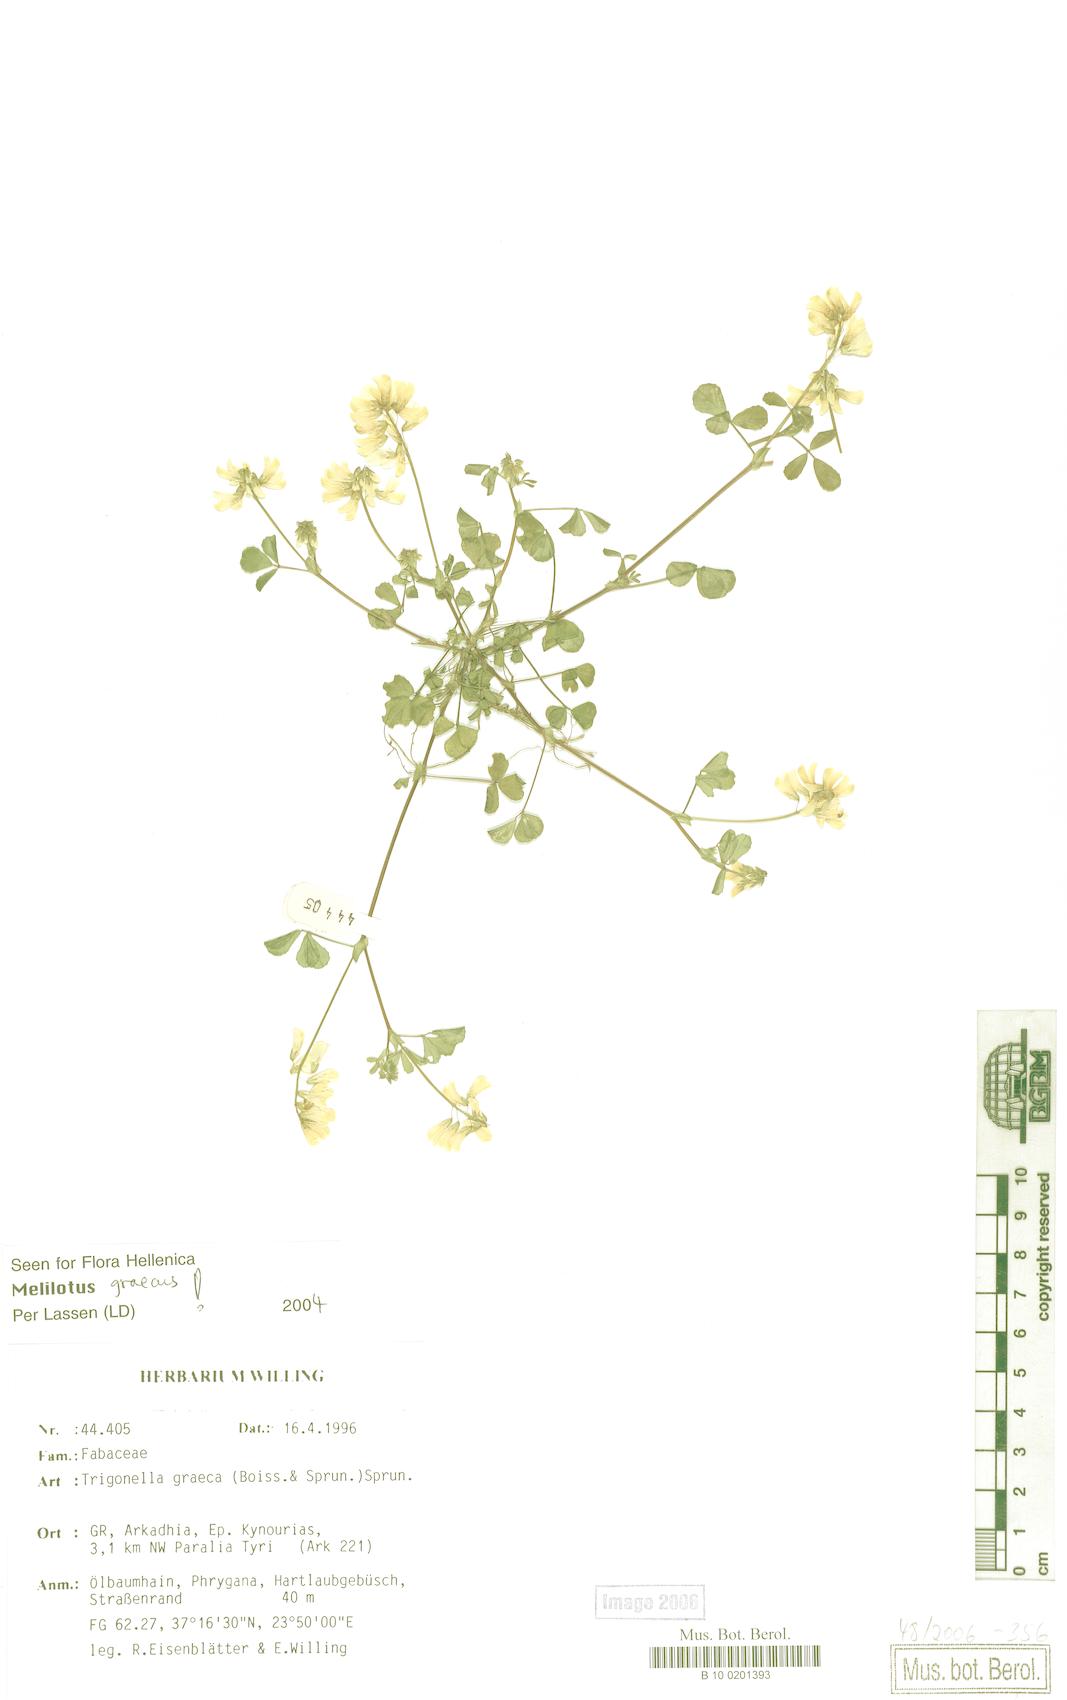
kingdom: Plantae
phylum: Tracheophyta
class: Magnoliopsida
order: Fabales
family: Fabaceae
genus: Trigonella
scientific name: Trigonella graeca
